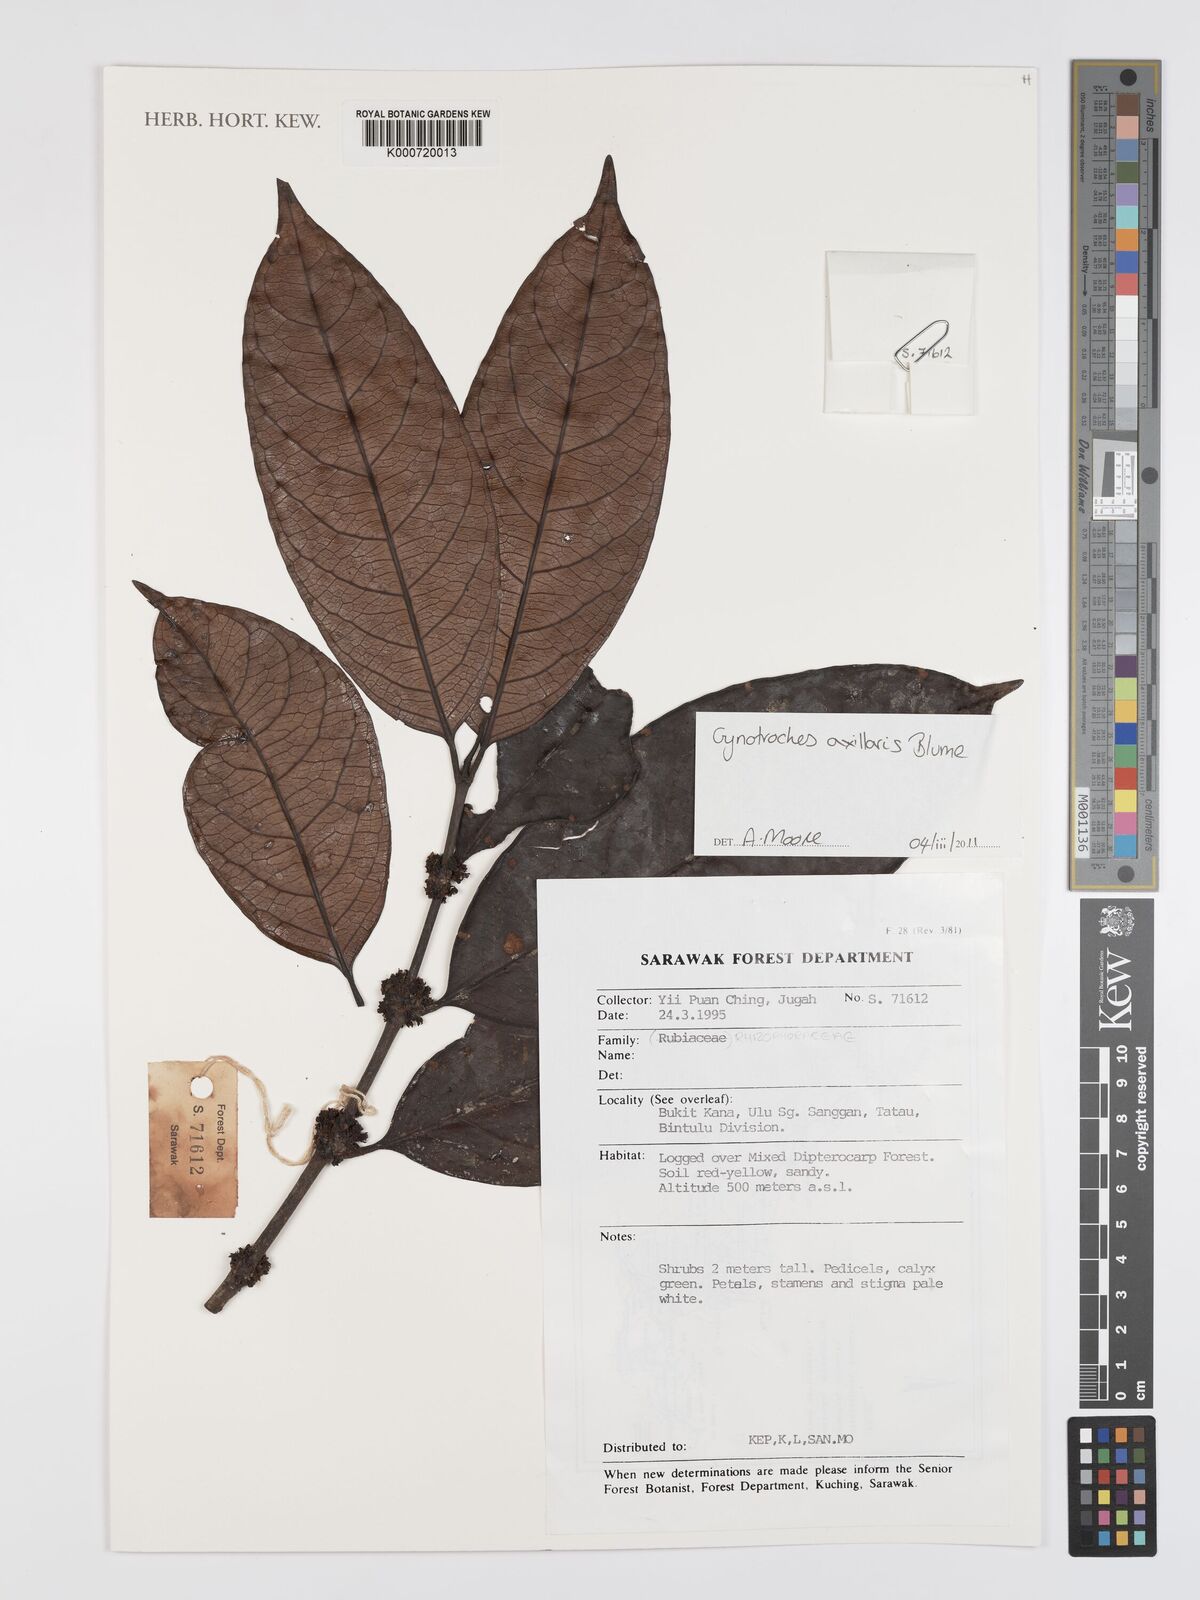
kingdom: Plantae
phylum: Tracheophyta
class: Magnoliopsida
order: Malpighiales
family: Rhizophoraceae
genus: Gynotroches
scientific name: Gynotroches axillaris
